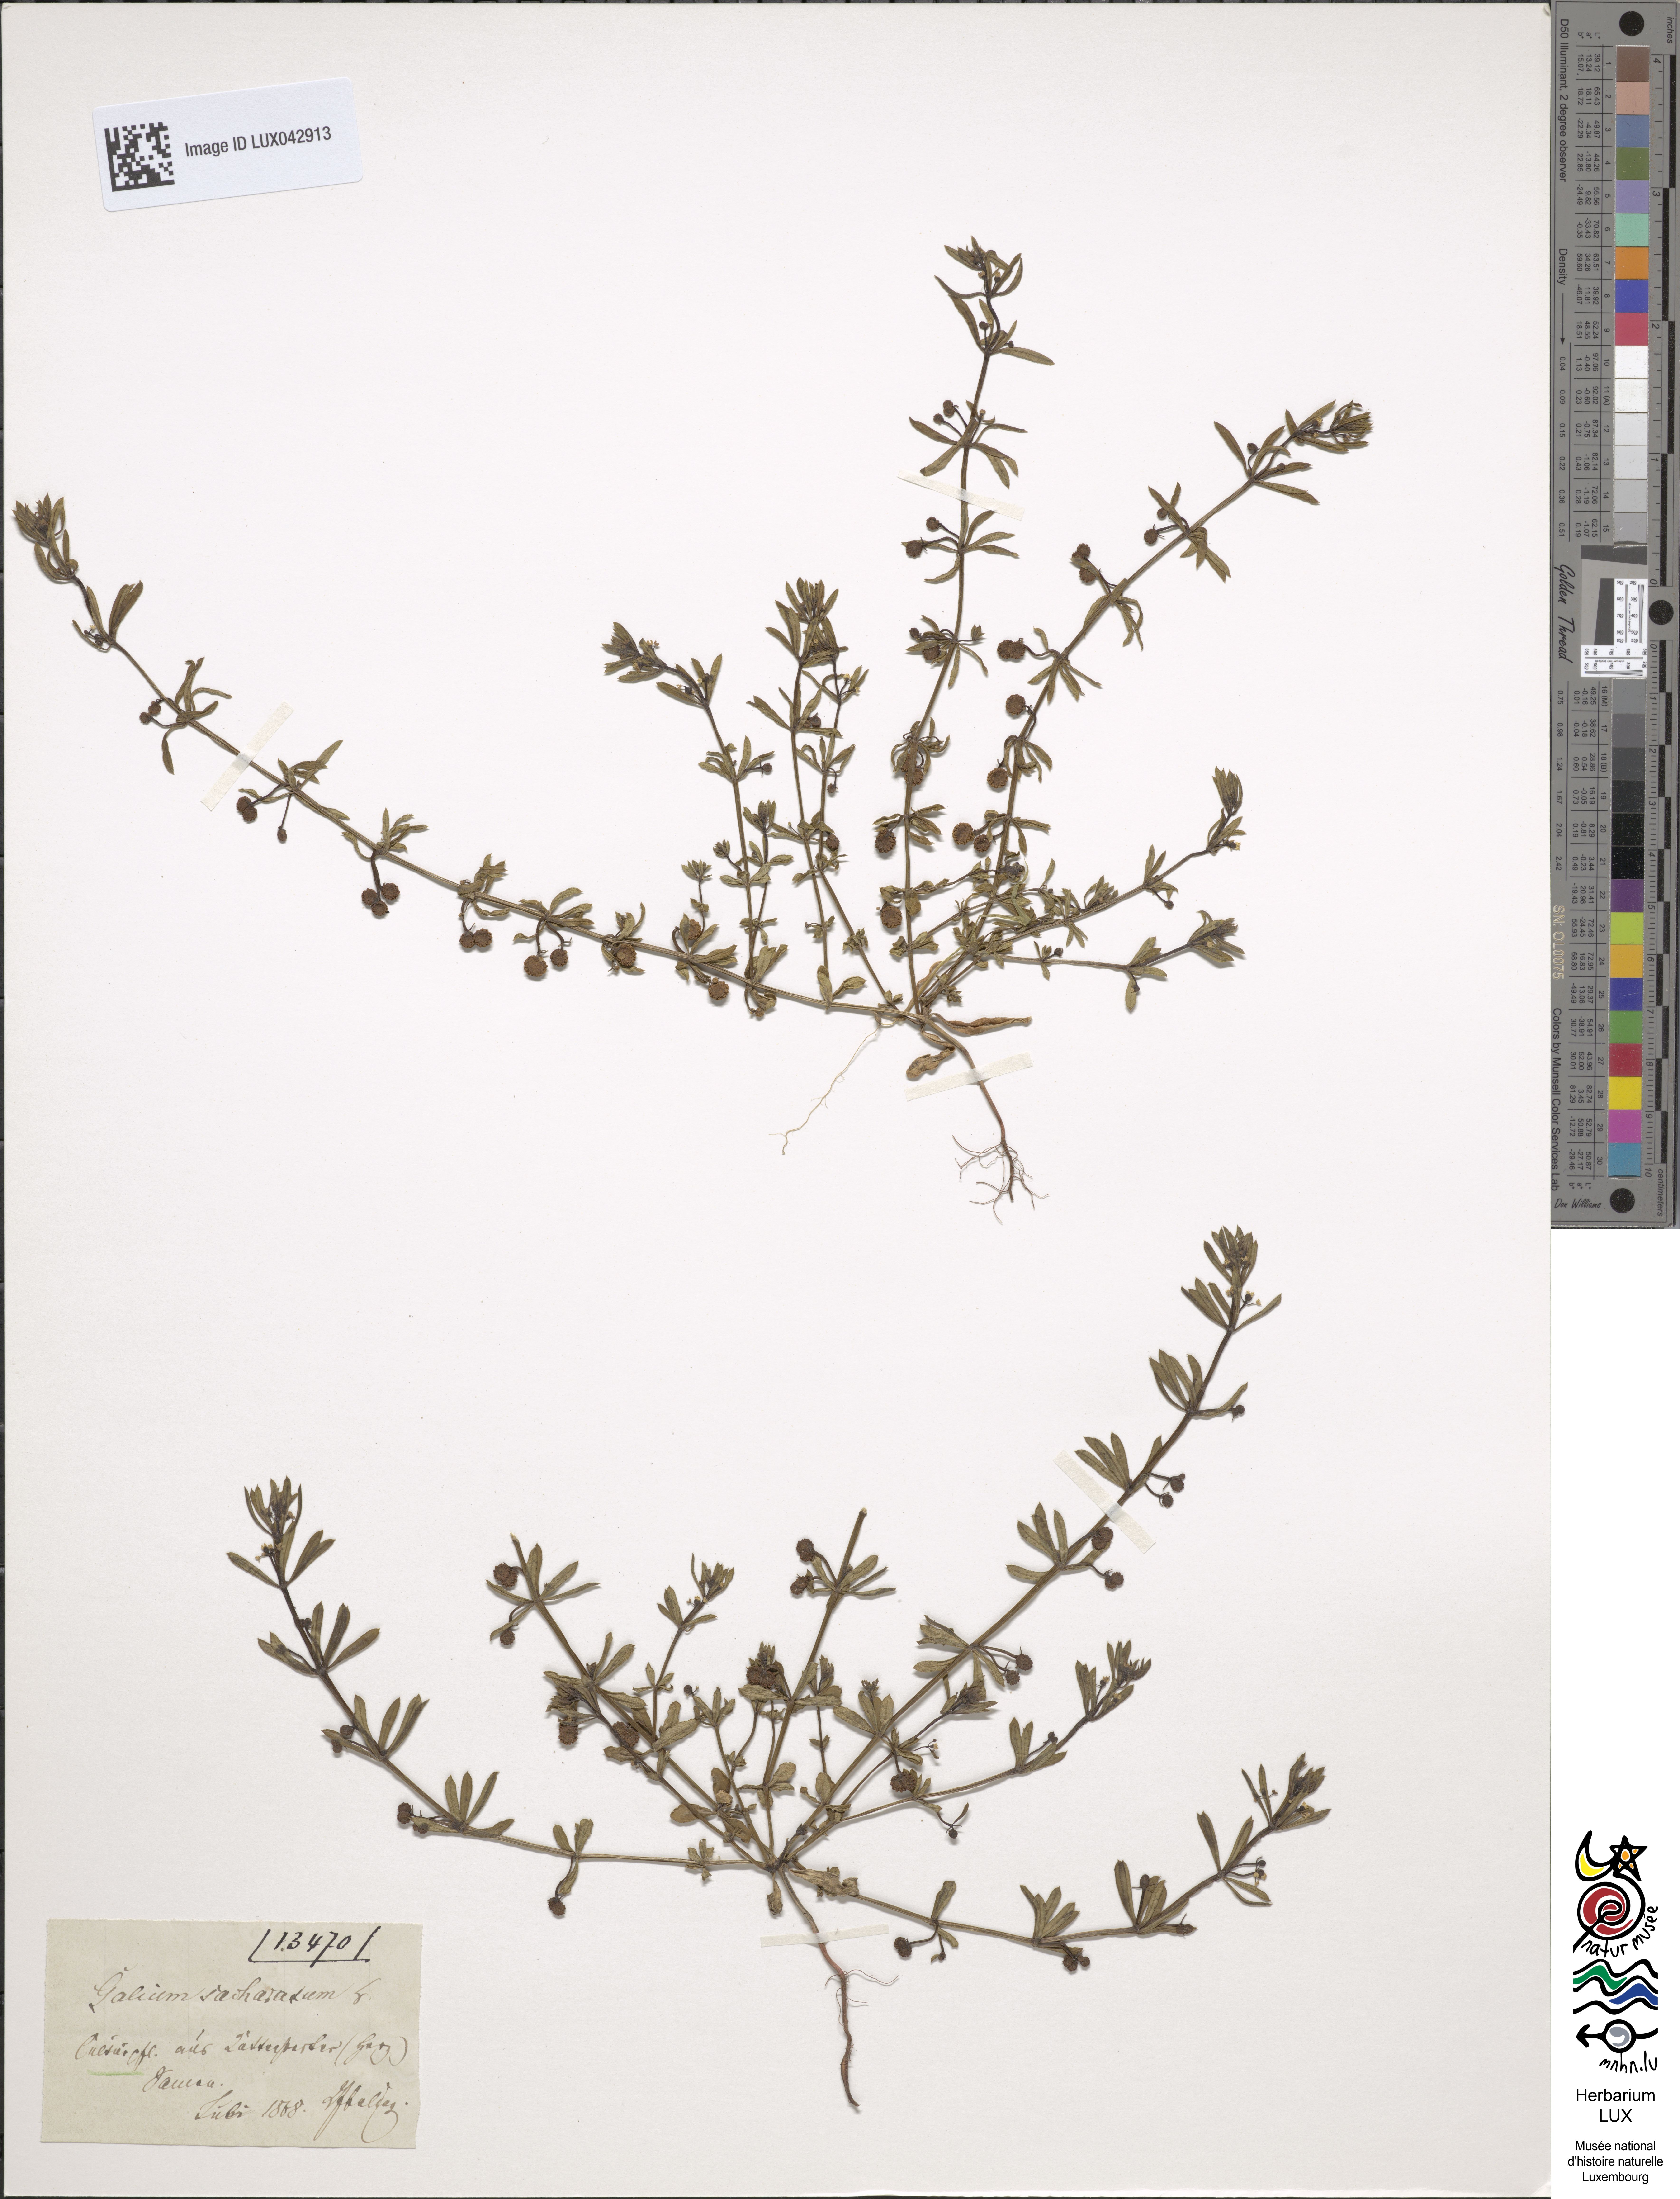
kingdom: Plantae
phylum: Tracheophyta
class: Magnoliopsida
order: Gentianales
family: Rubiaceae
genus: Galium
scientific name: Galium verrucosum
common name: Warty bedstraw
